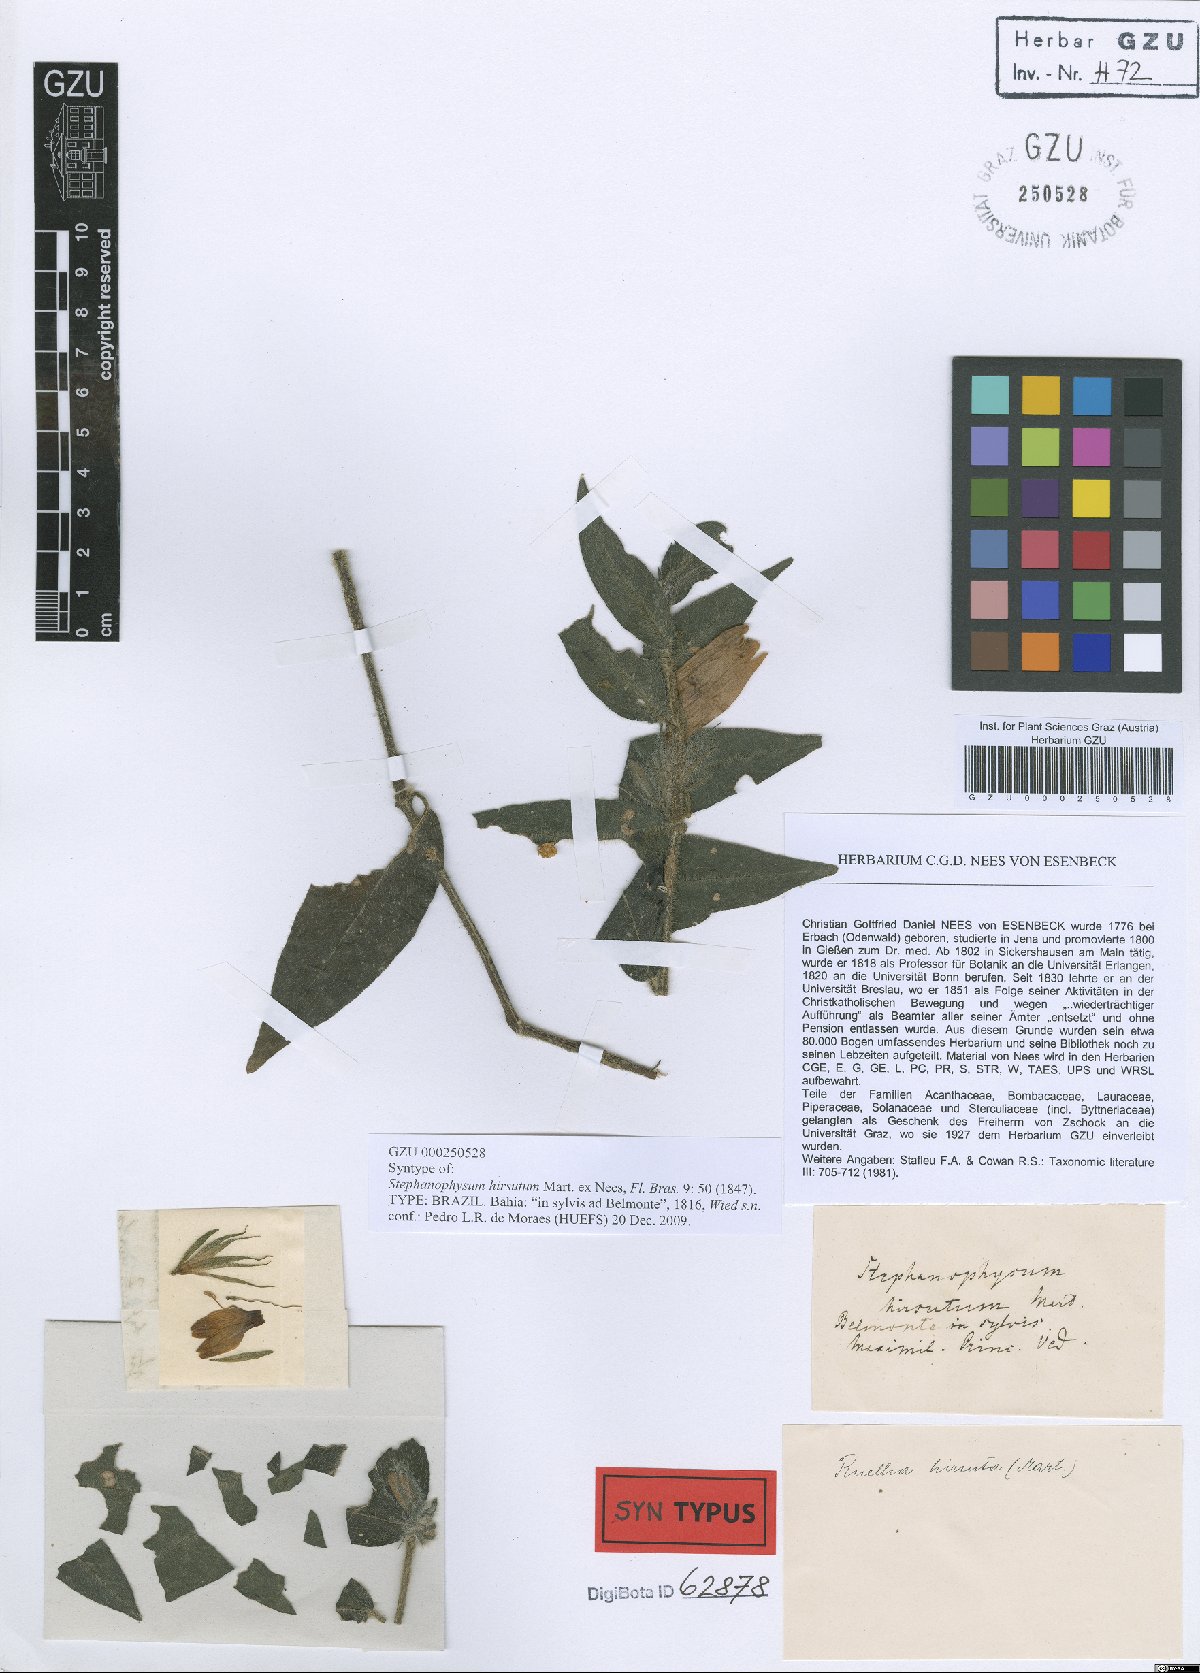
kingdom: Plantae
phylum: Tracheophyta
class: Magnoliopsida
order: Lamiales
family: Acanthaceae
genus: Ruellia
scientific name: Ruellia asperula
